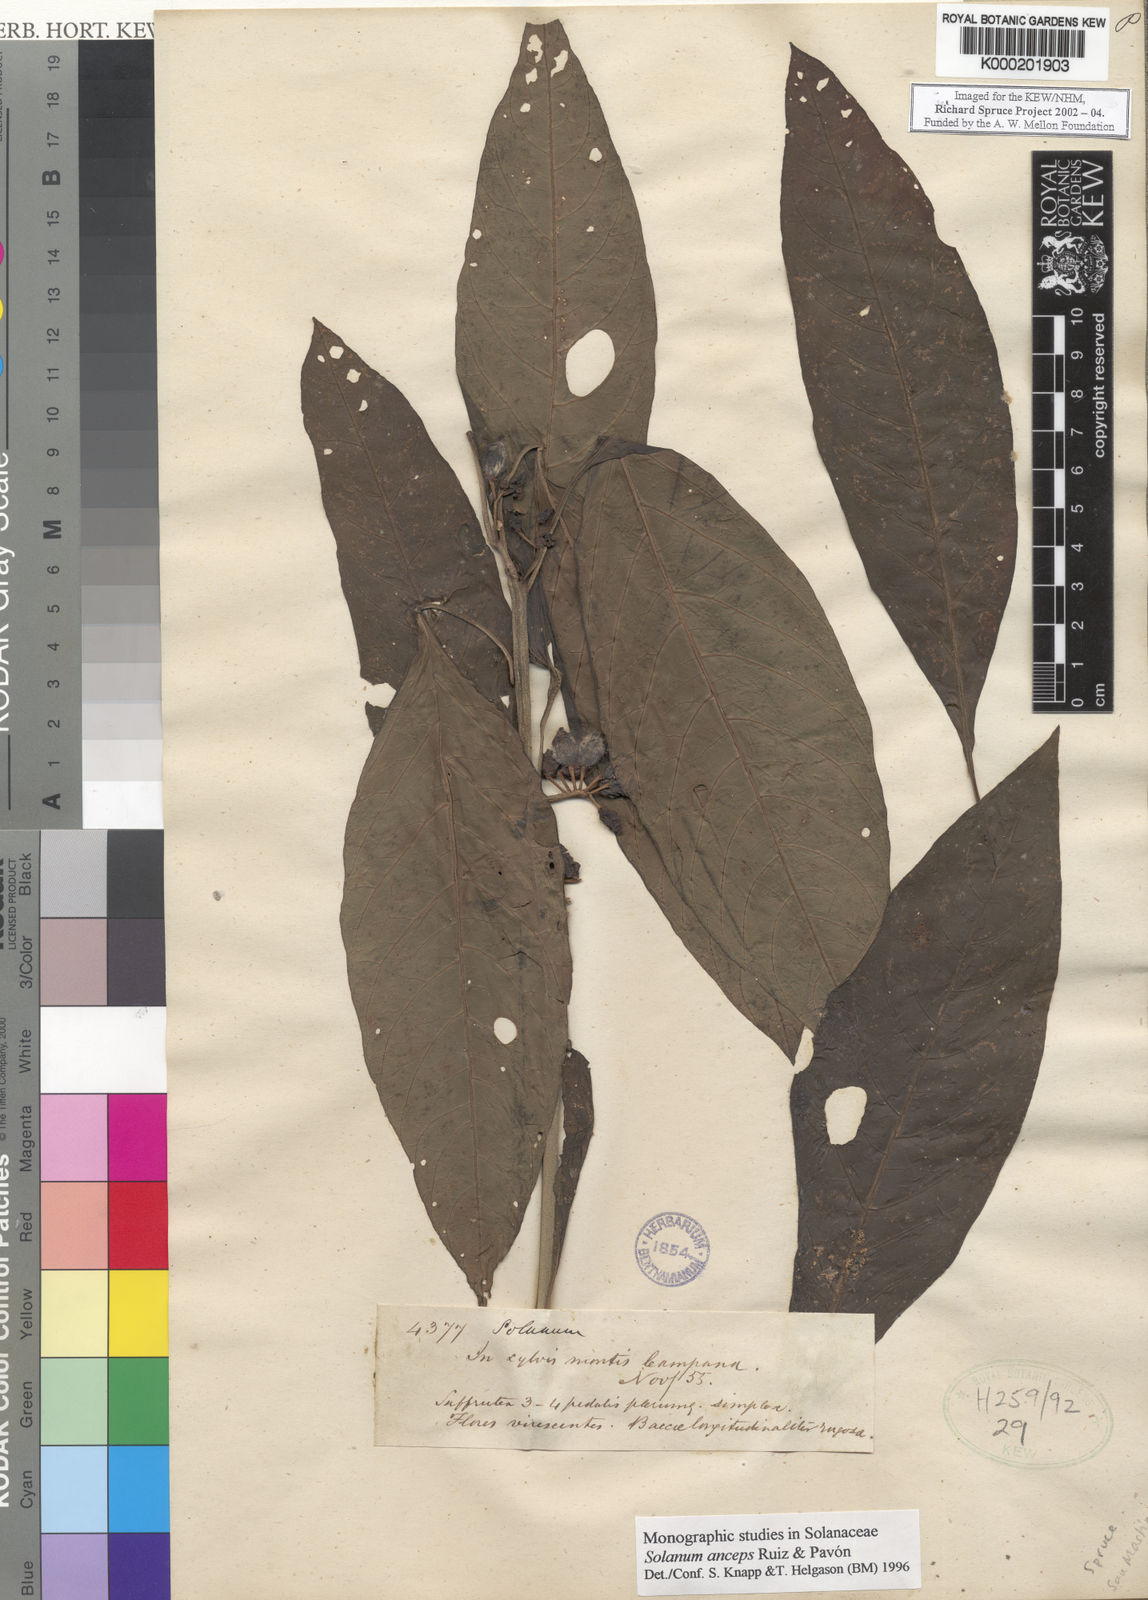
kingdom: Plantae
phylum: Tracheophyta
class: Magnoliopsida
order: Solanales
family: Solanaceae
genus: Solanum
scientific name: Solanum anceps
